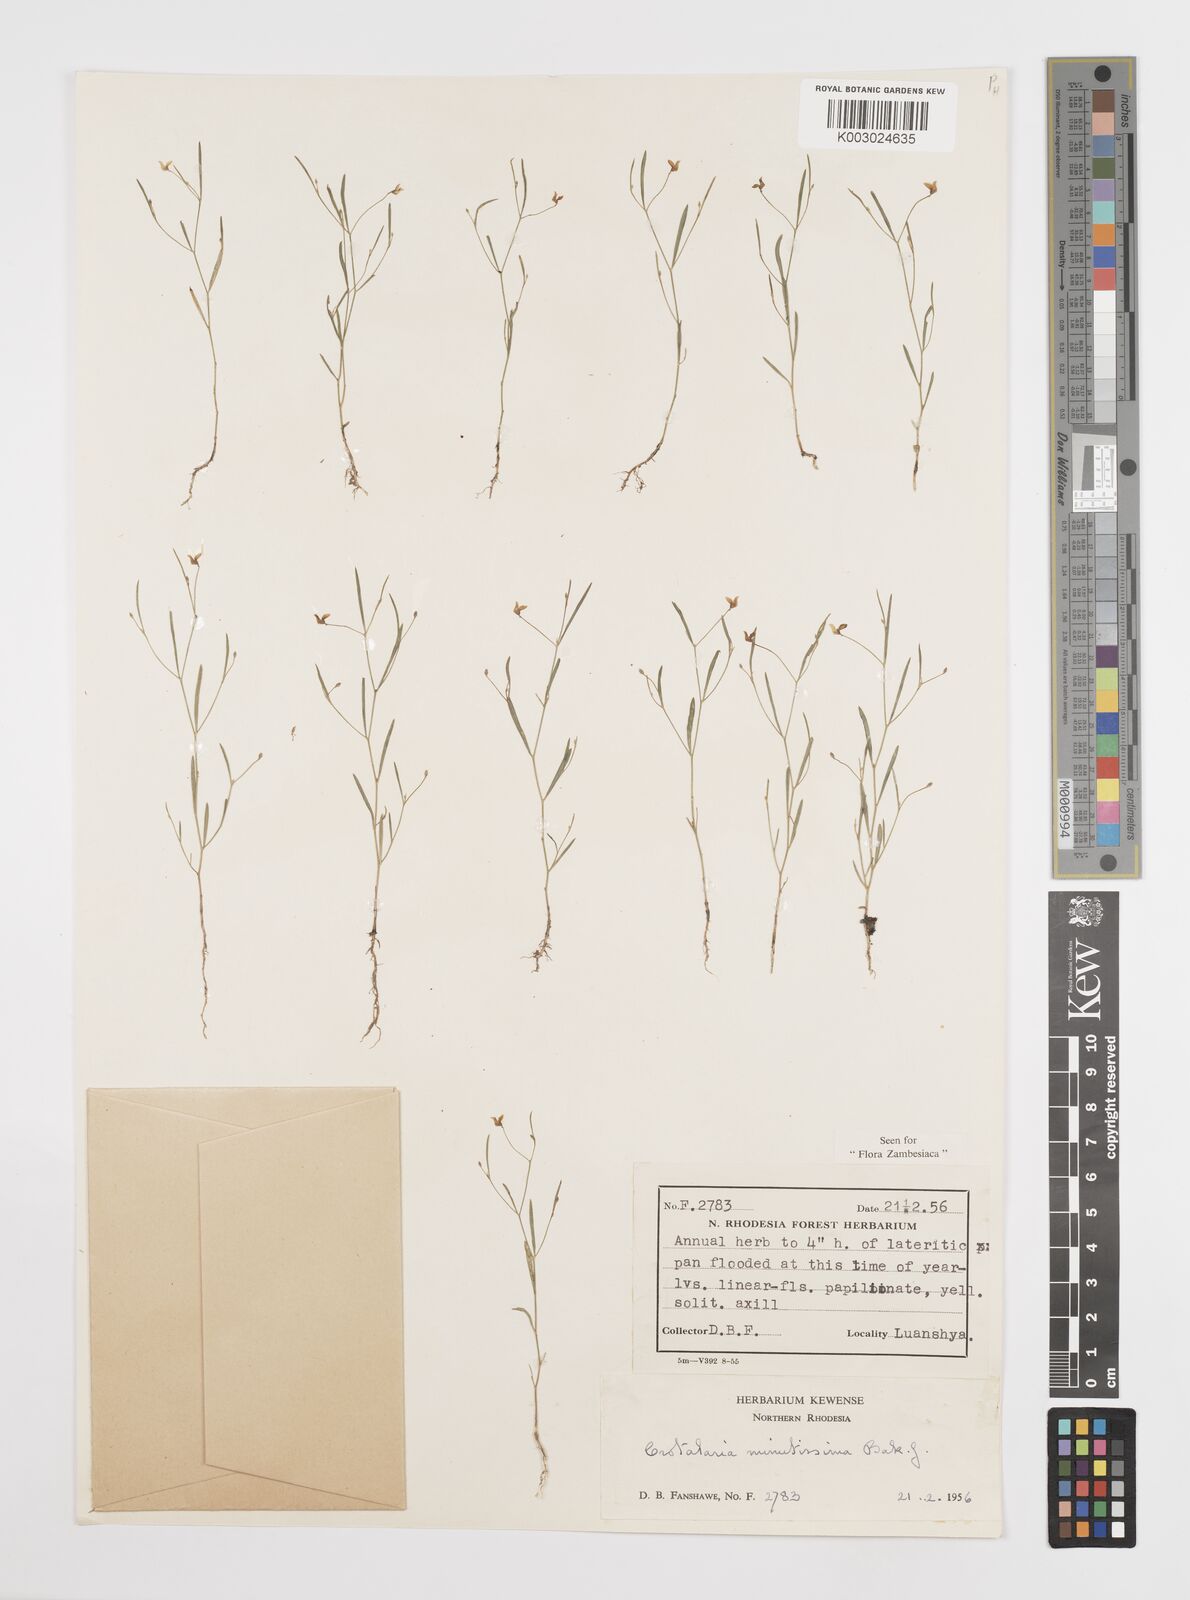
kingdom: Plantae
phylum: Tracheophyta
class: Magnoliopsida
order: Fabales
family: Fabaceae
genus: Crotalaria
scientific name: Crotalaria minutissima
